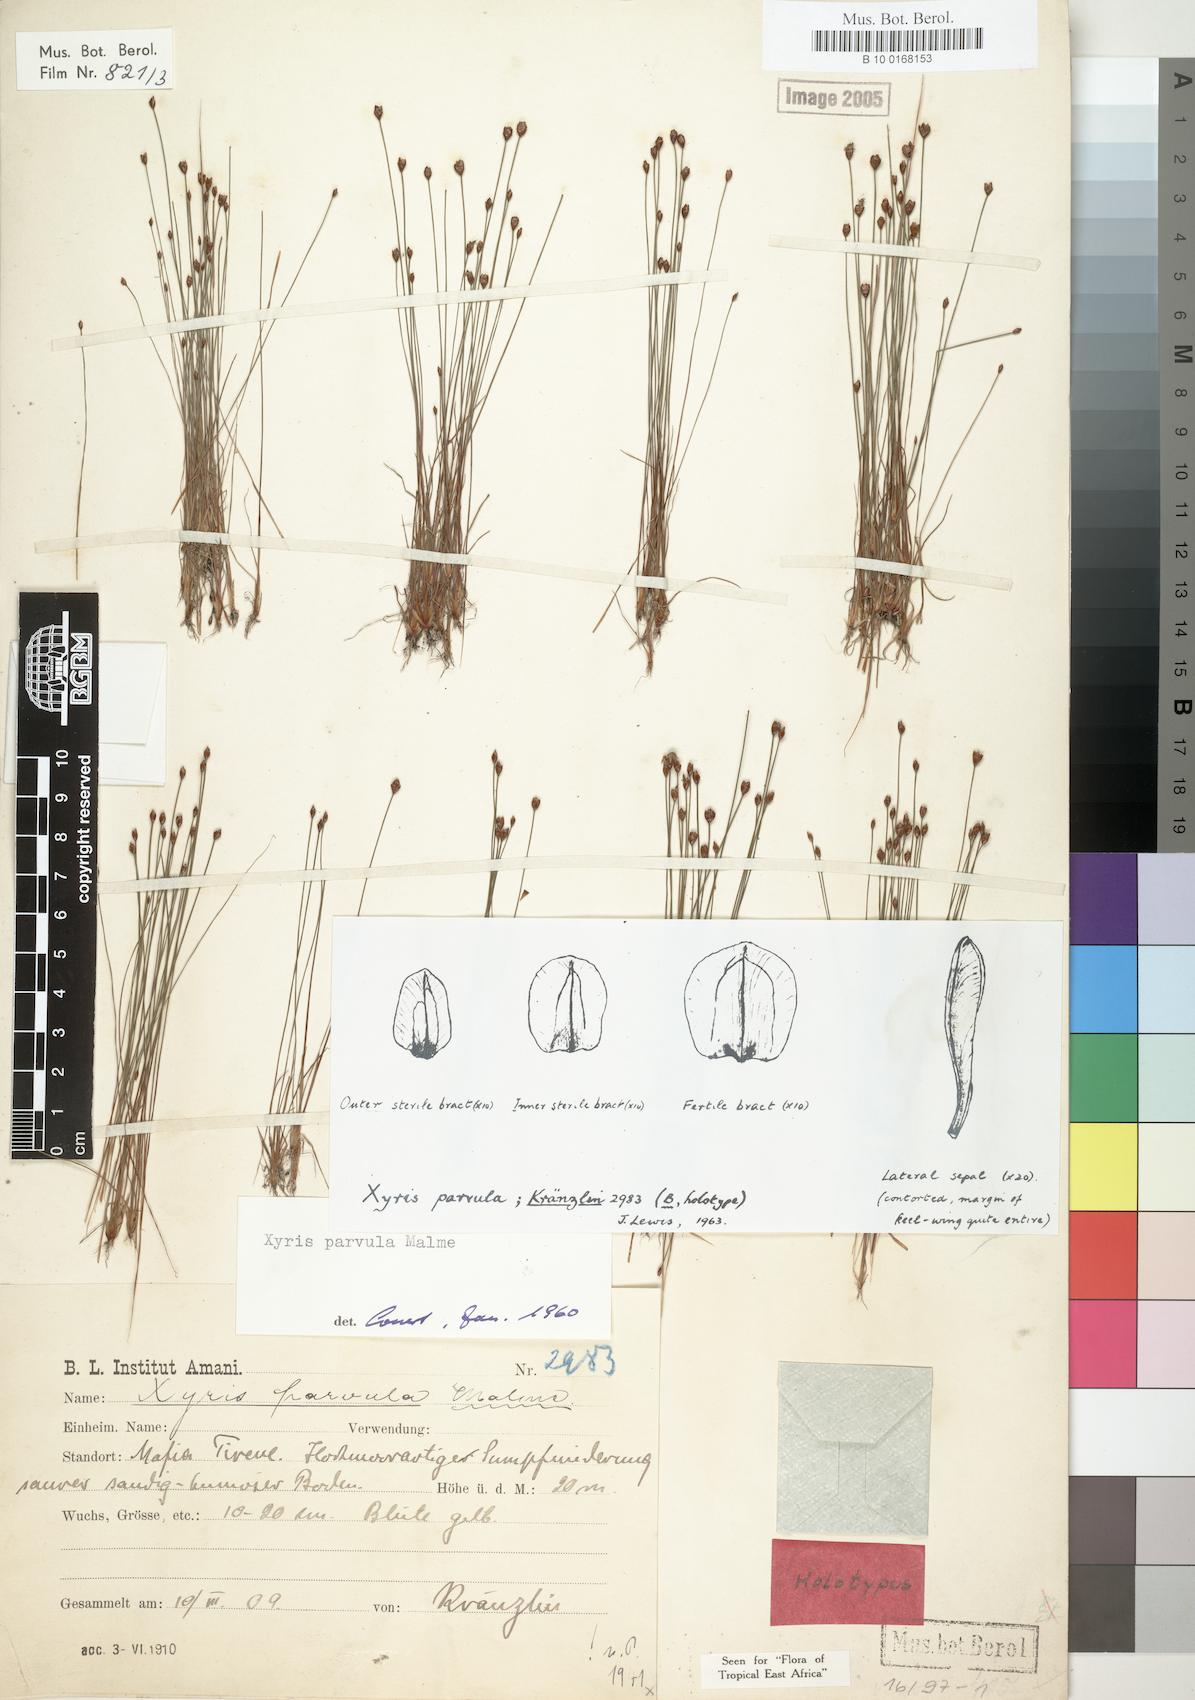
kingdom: Plantae
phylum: Tracheophyta
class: Liliopsida
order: Poales
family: Xyridaceae
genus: Xyris
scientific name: Xyris parvula
